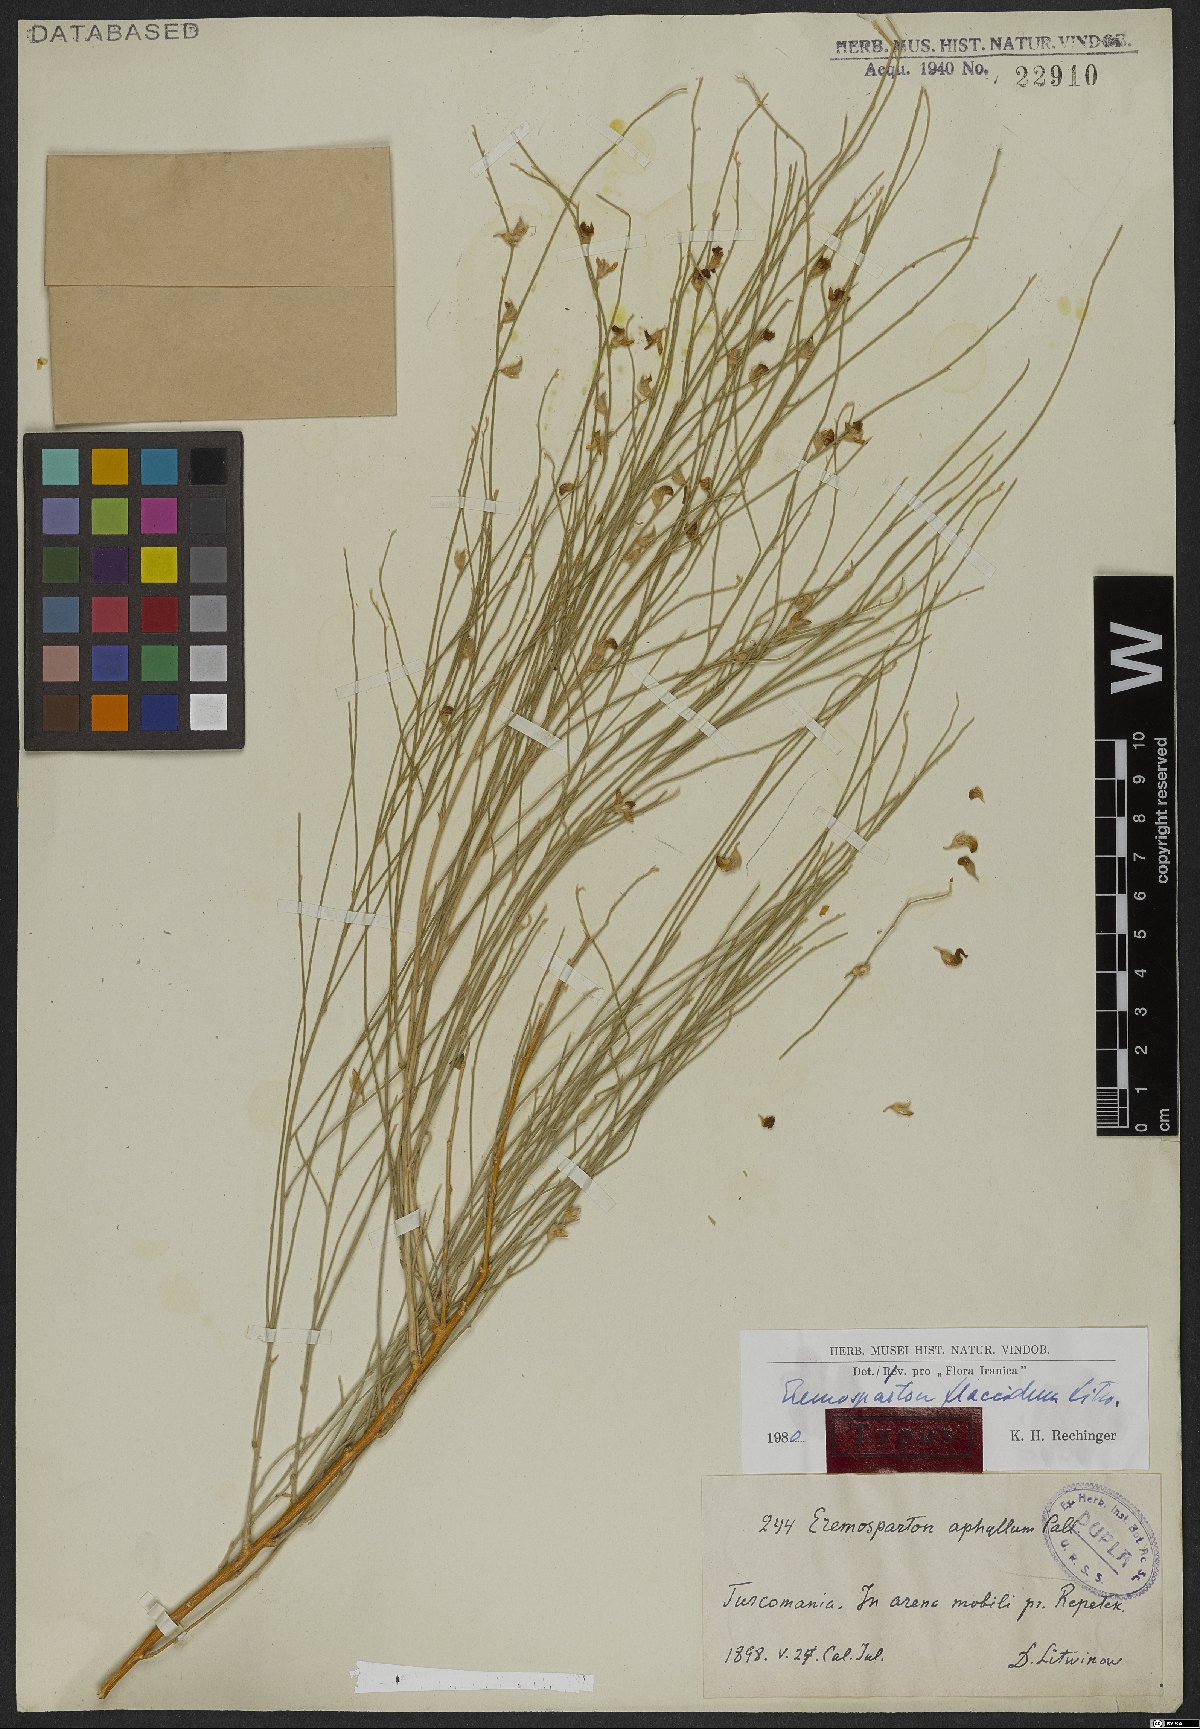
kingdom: Plantae
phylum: Tracheophyta
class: Magnoliopsida
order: Fabales
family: Fabaceae
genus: Eremosparton
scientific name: Eremosparton flaccidum
